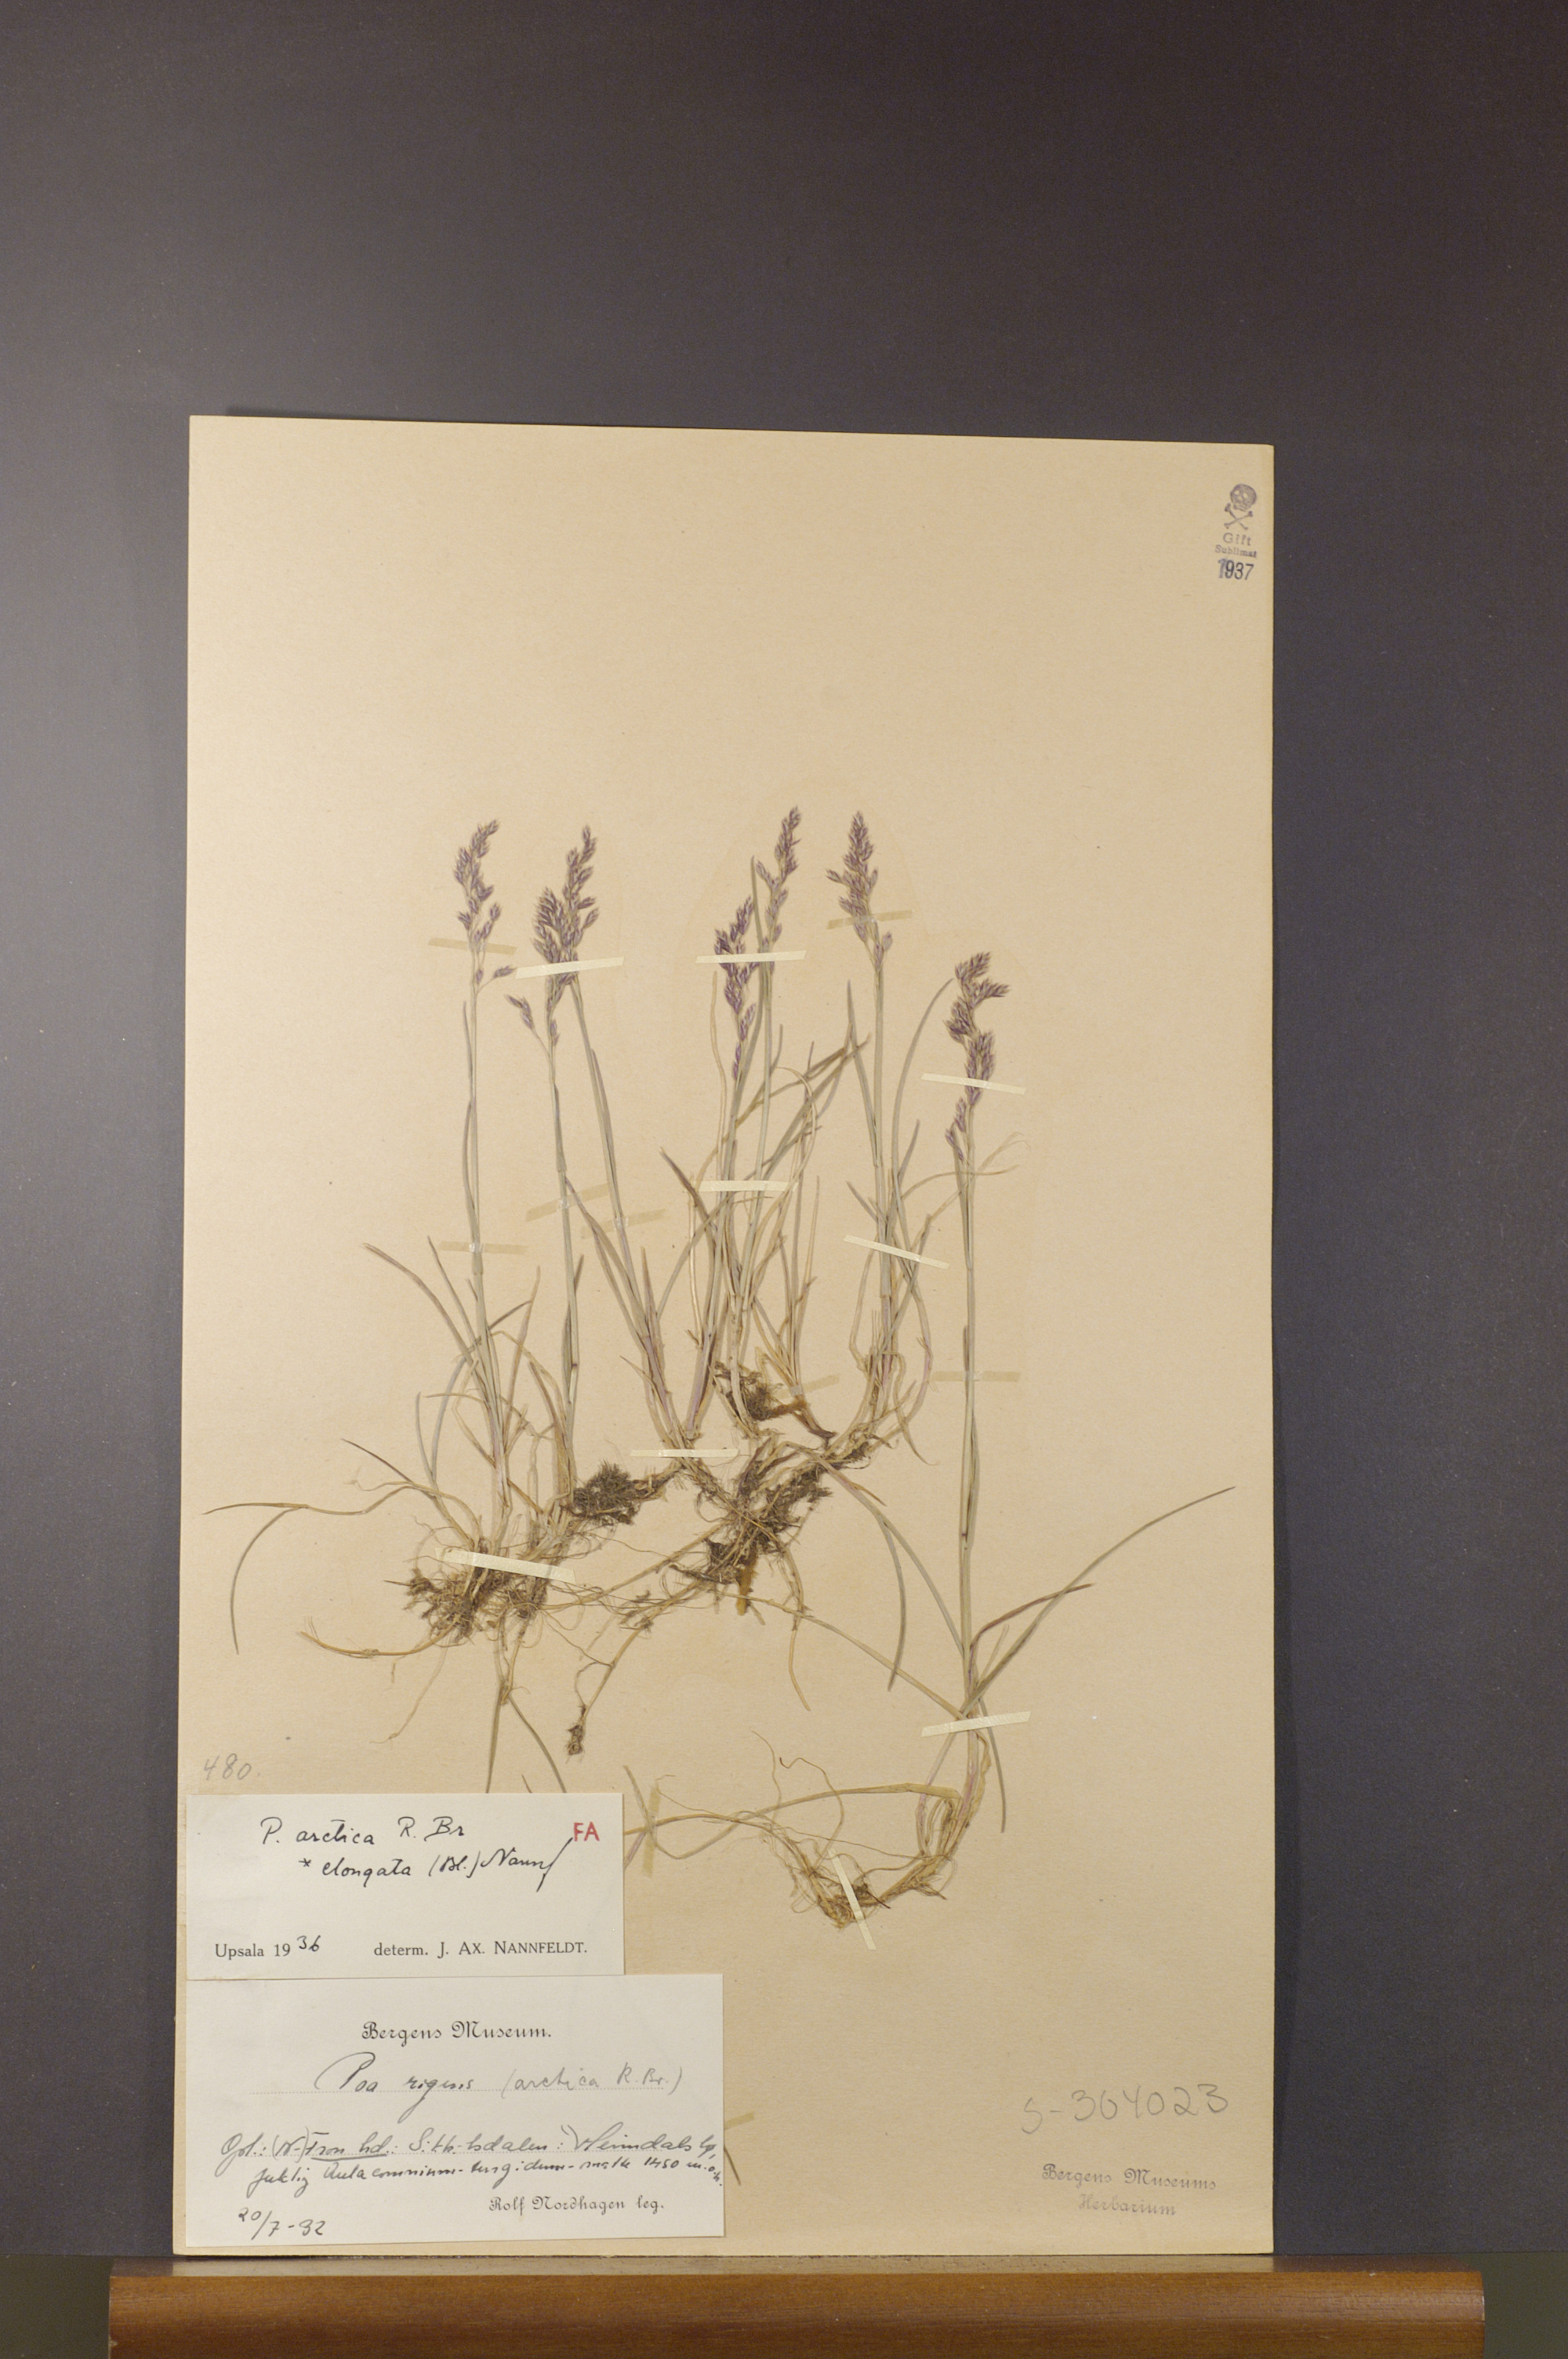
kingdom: Plantae
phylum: Tracheophyta
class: Liliopsida
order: Poales
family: Poaceae
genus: Poa
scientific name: Poa arctica
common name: Arctic bluegrass
